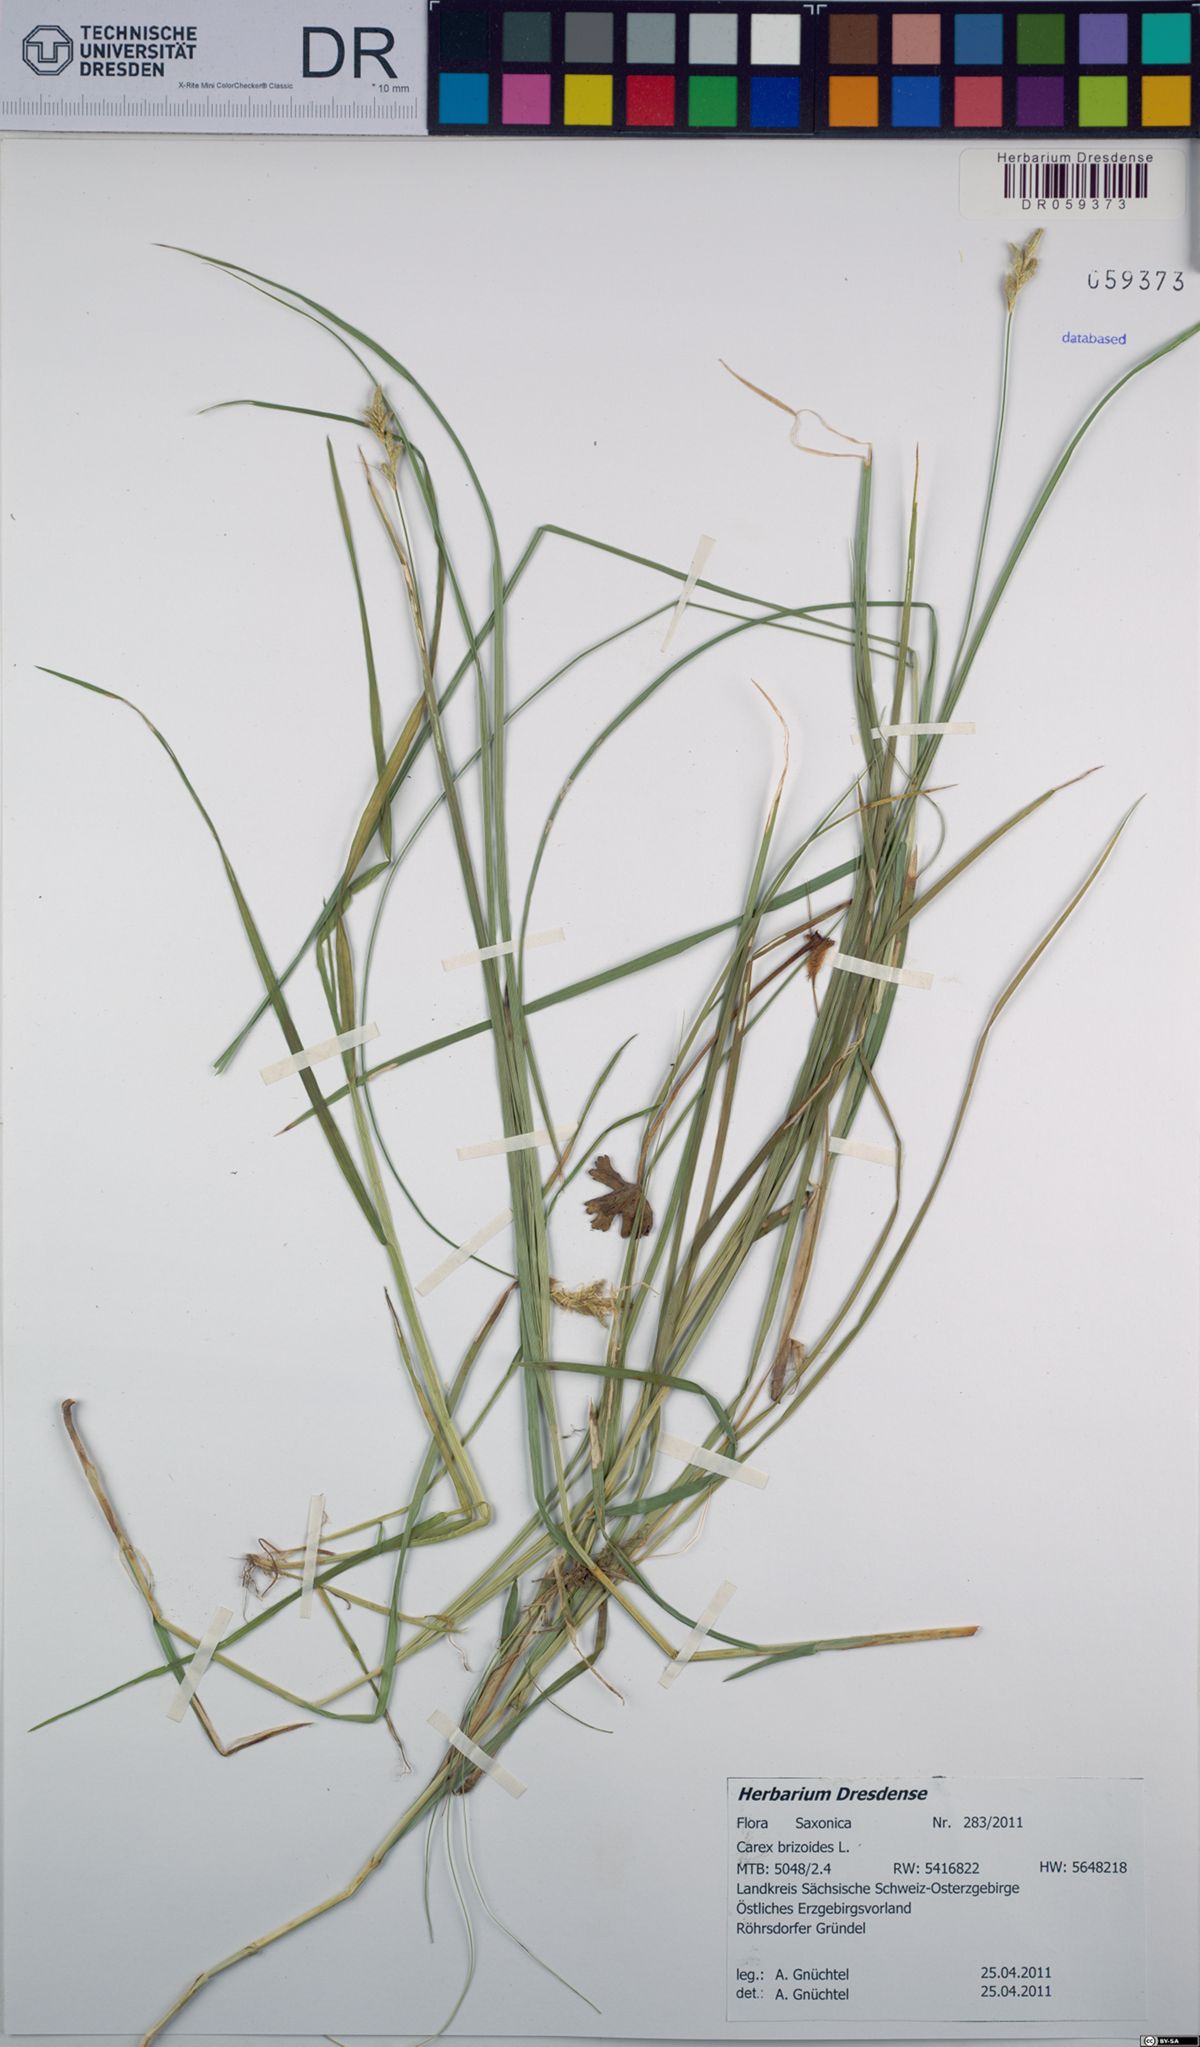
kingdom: Plantae
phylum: Tracheophyta
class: Liliopsida
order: Poales
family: Cyperaceae
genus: Carex
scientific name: Carex brizoides
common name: Quaking-grass sedge
